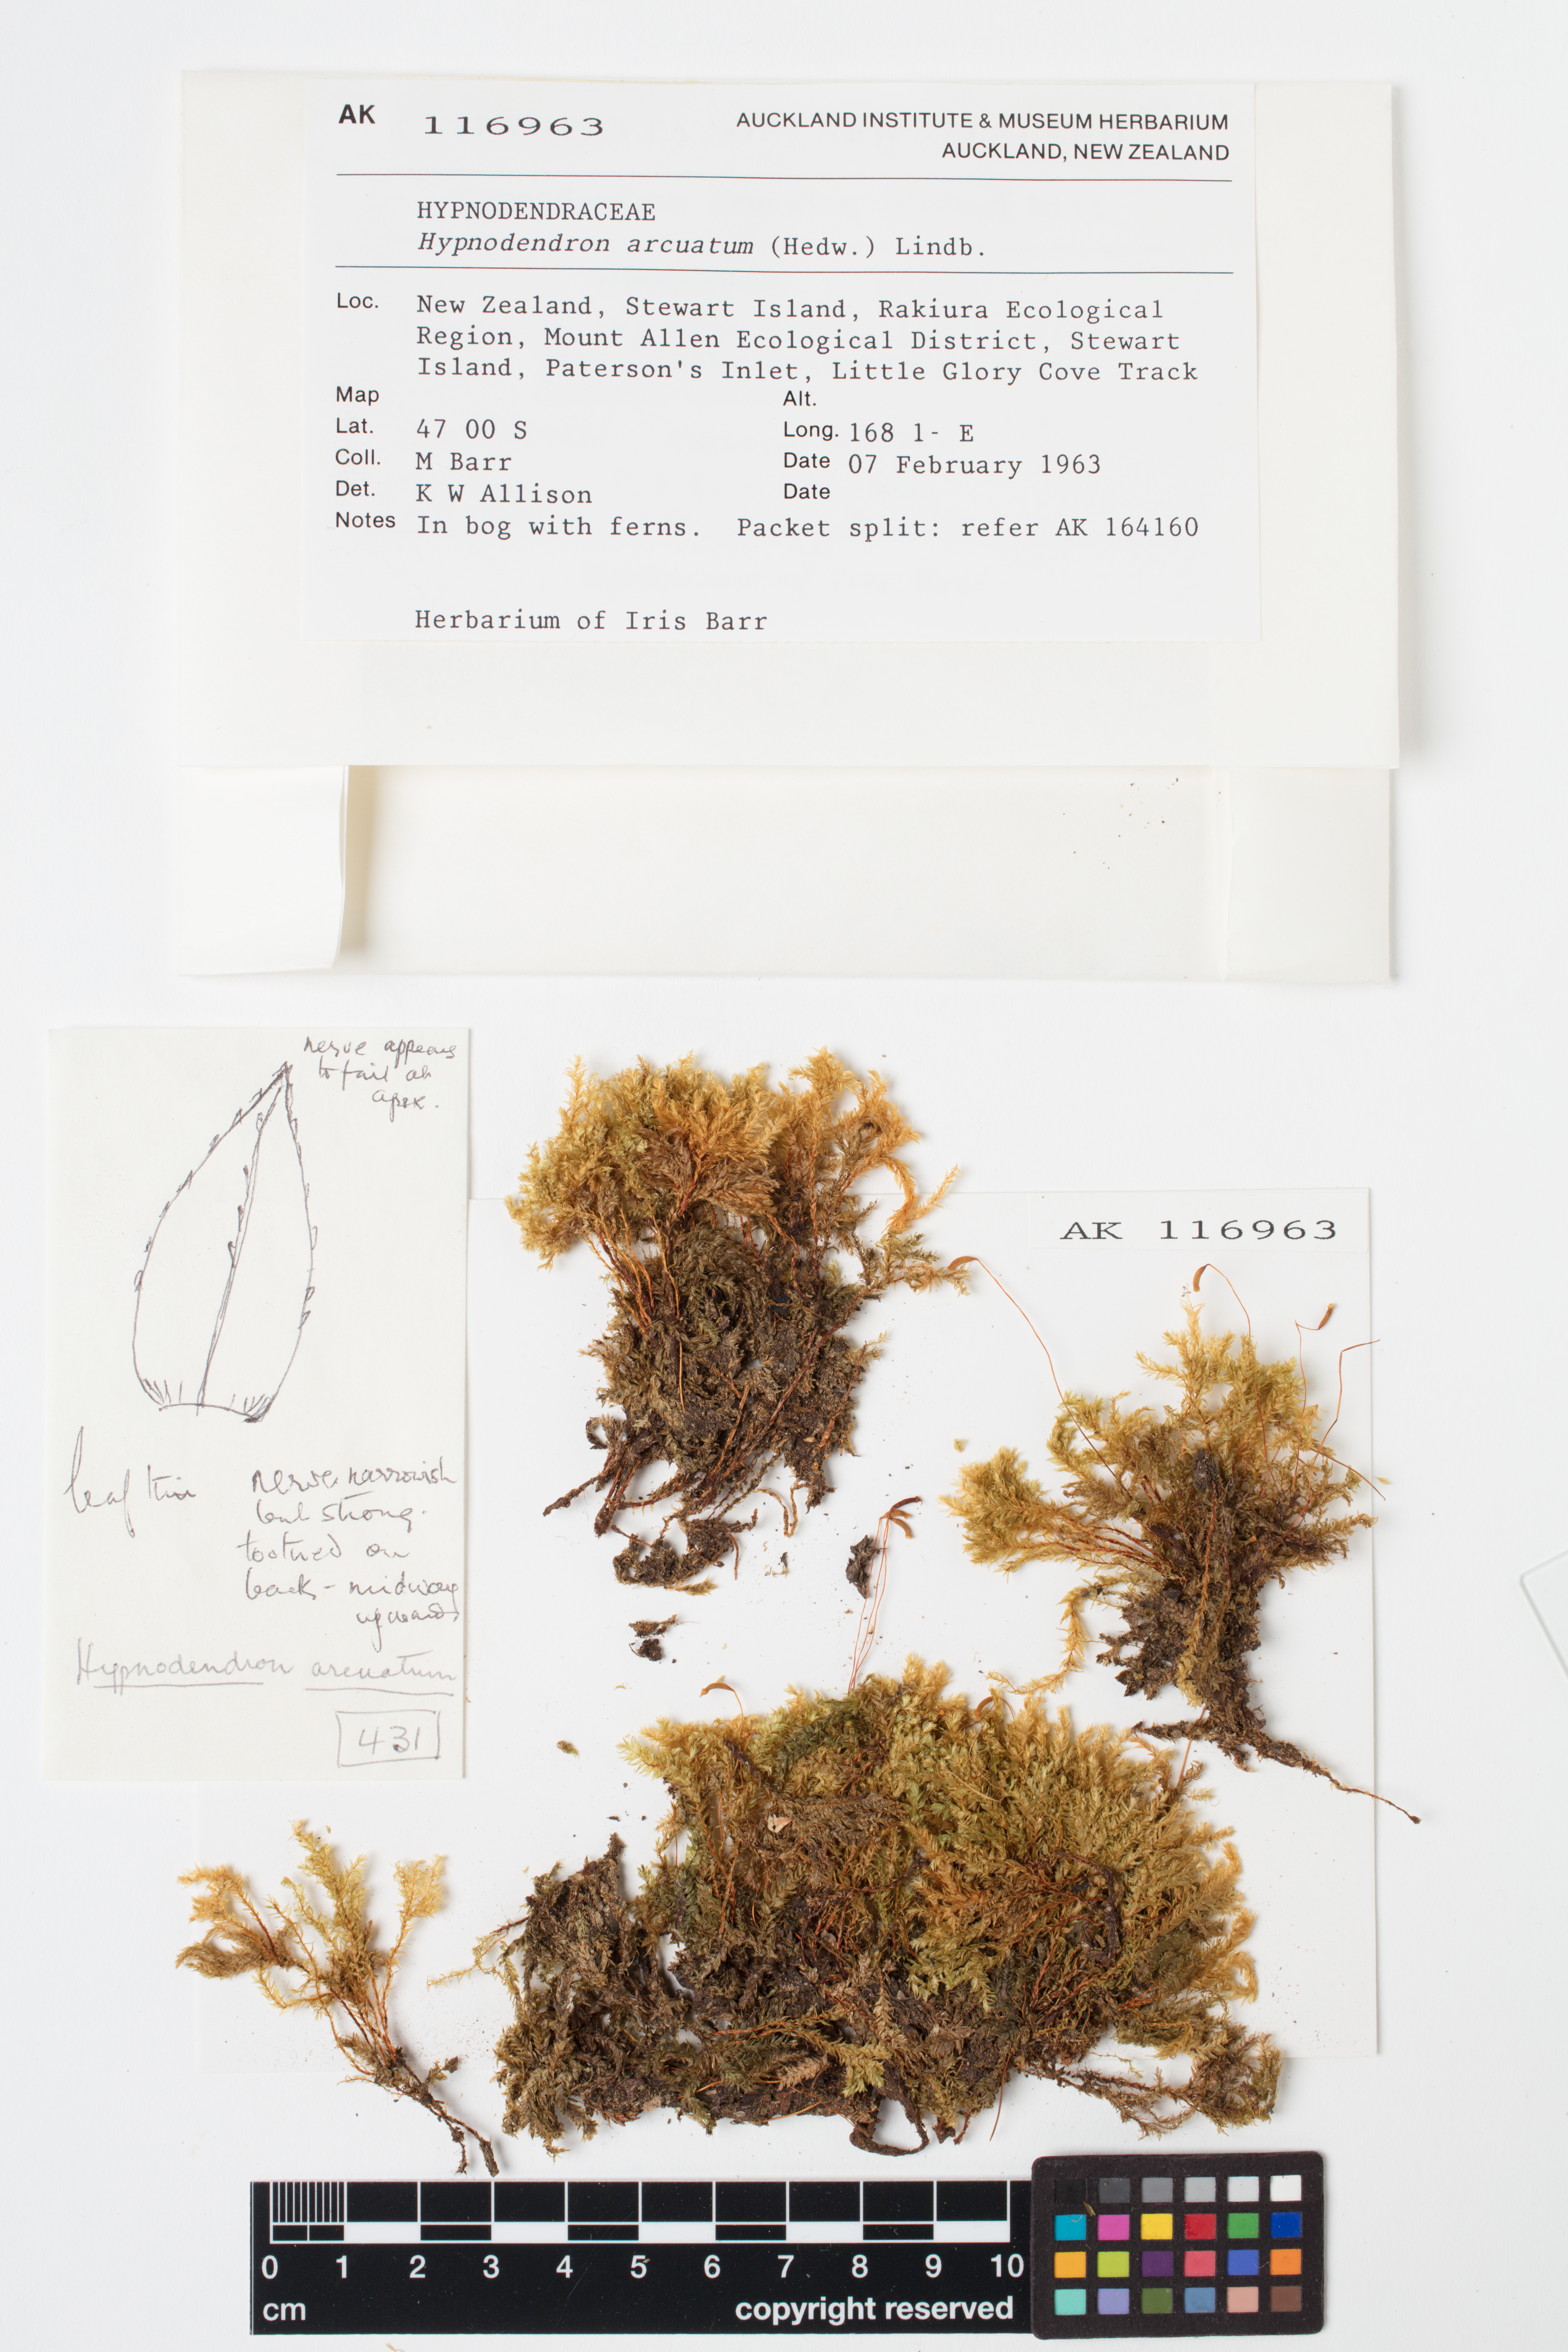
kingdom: Plantae
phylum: Bryophyta
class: Bryopsida
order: Hypnodendrales
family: Spiridentaceae
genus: Hypnodendron
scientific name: Hypnodendron arcuatum
